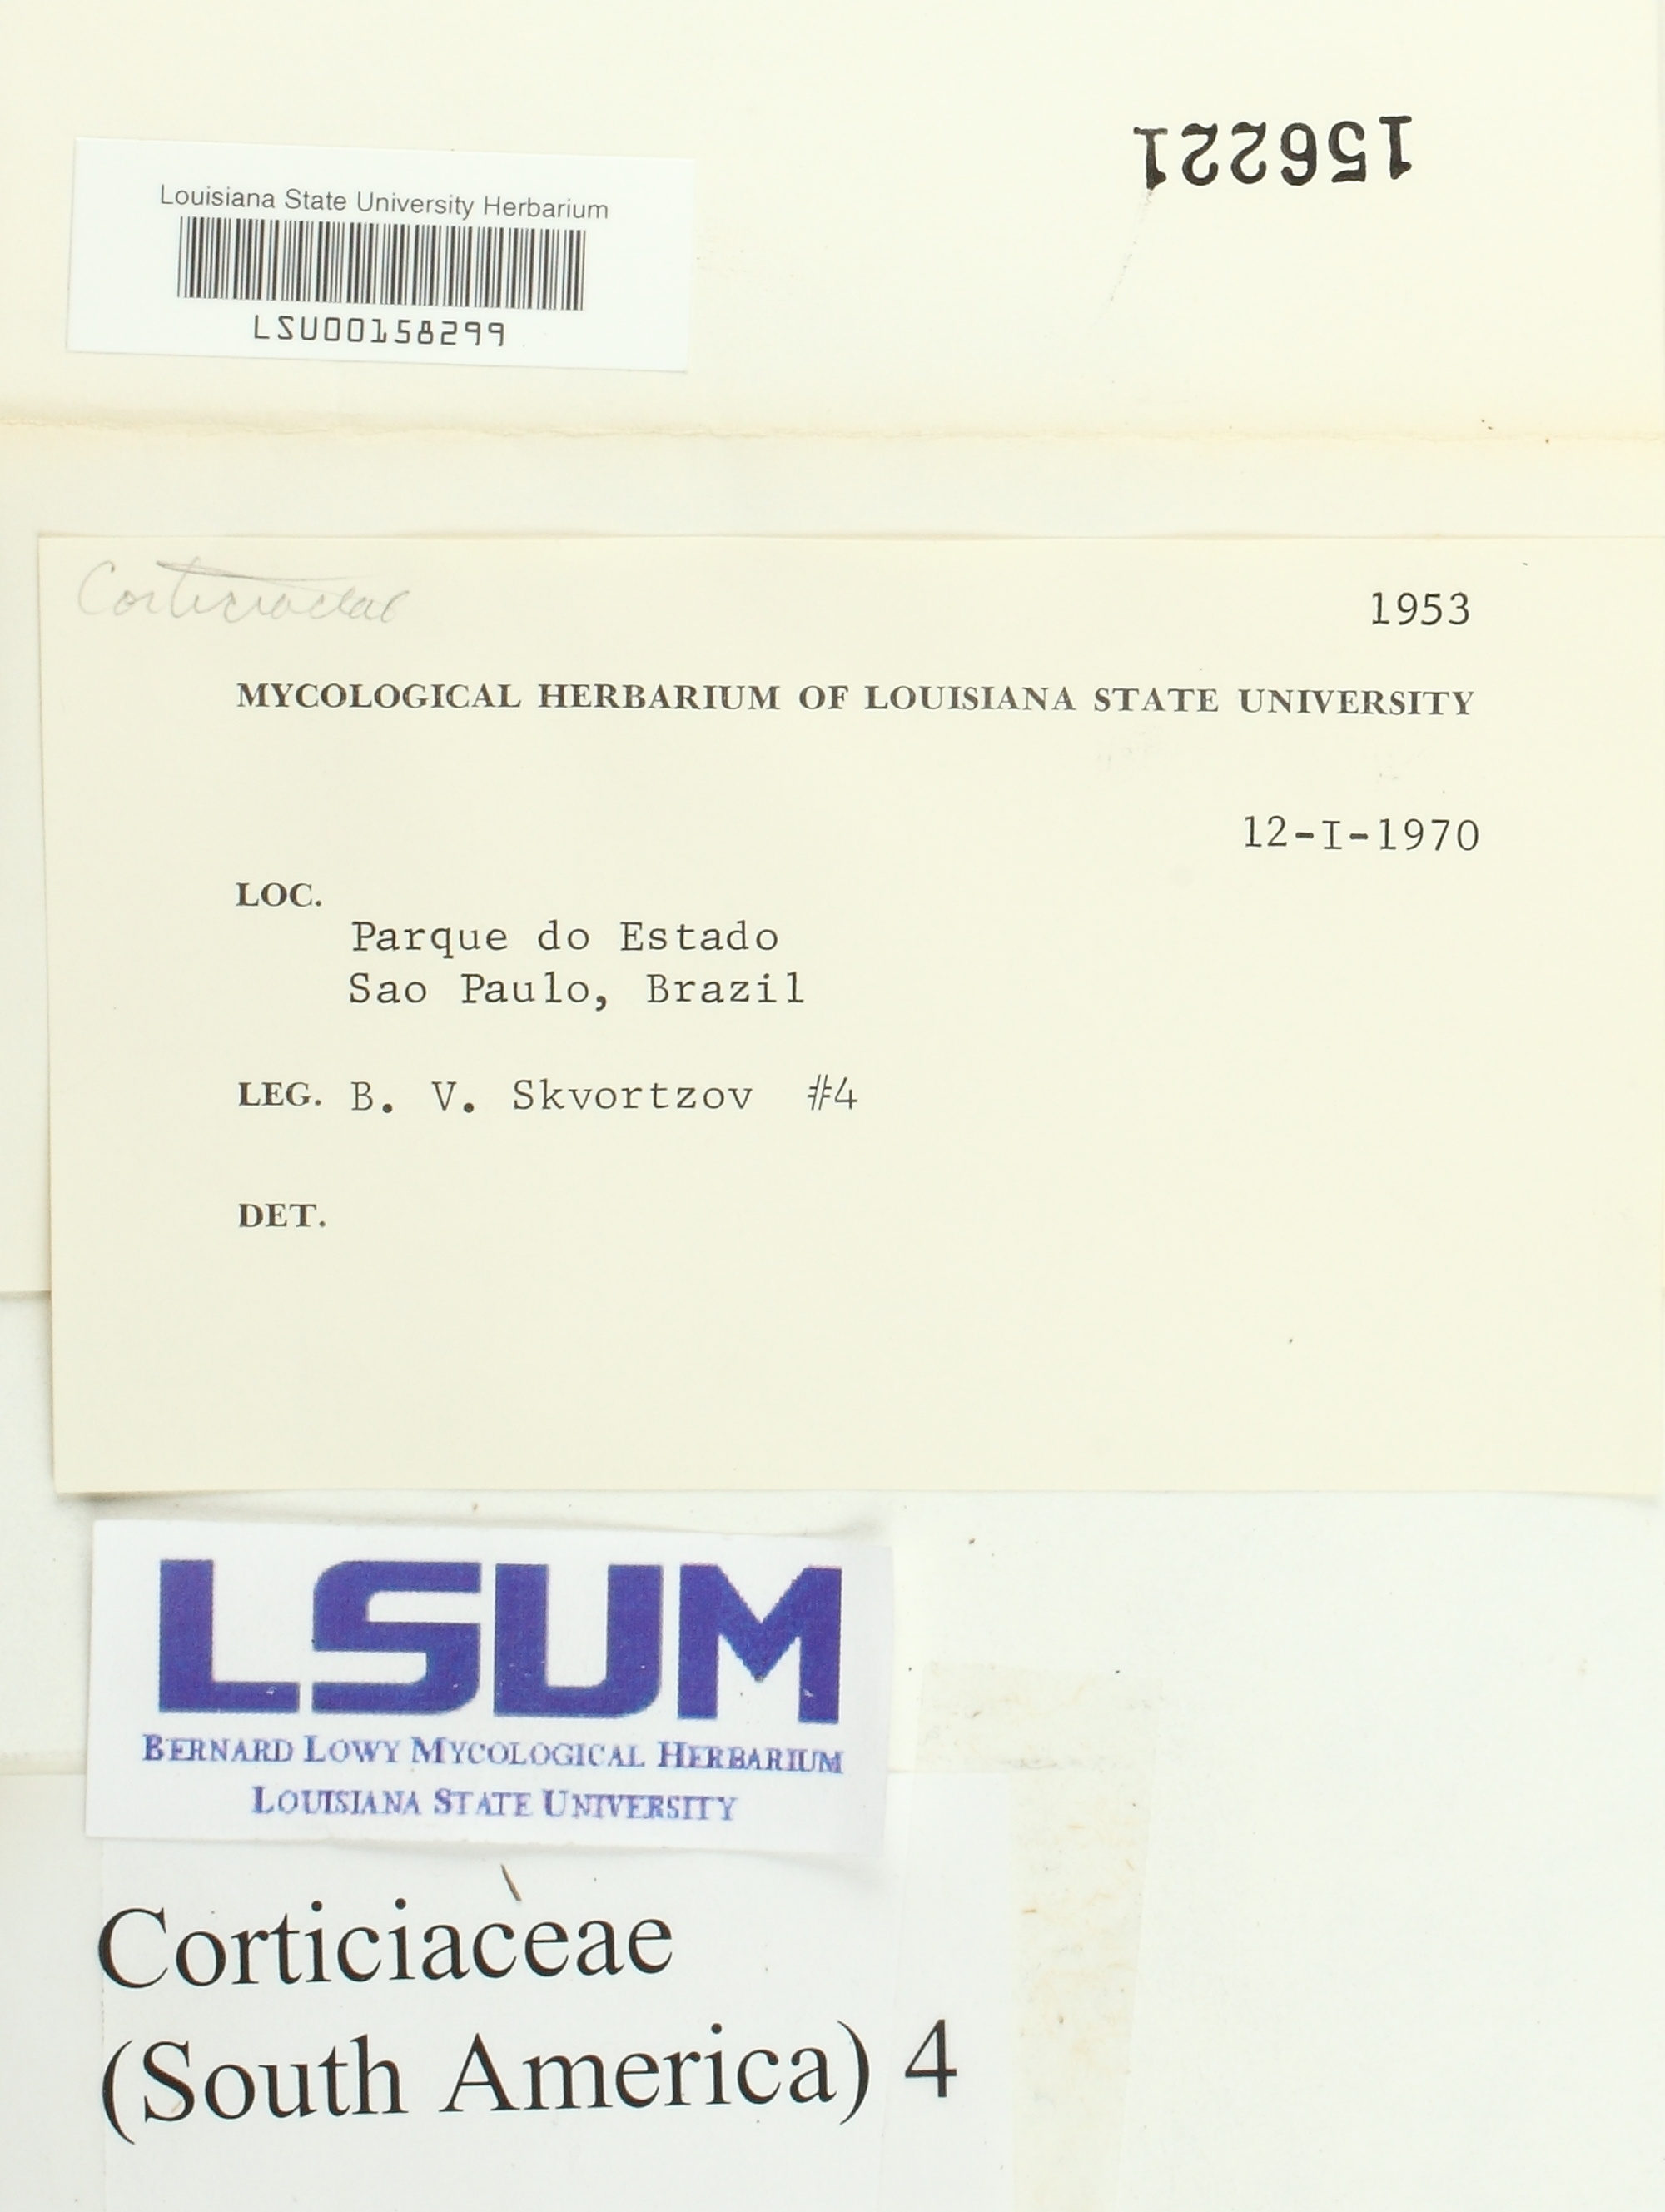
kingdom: Fungi
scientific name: Fungi
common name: Fungi
